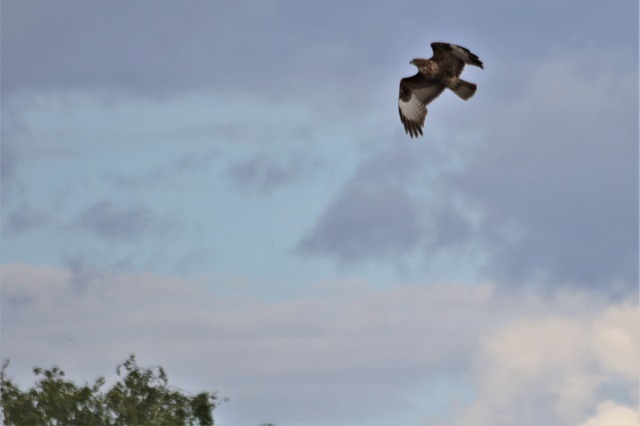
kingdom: Animalia
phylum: Chordata
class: Aves
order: Accipitriformes
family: Accipitridae
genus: Buteo
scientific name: Buteo buteo
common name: Musvåge
